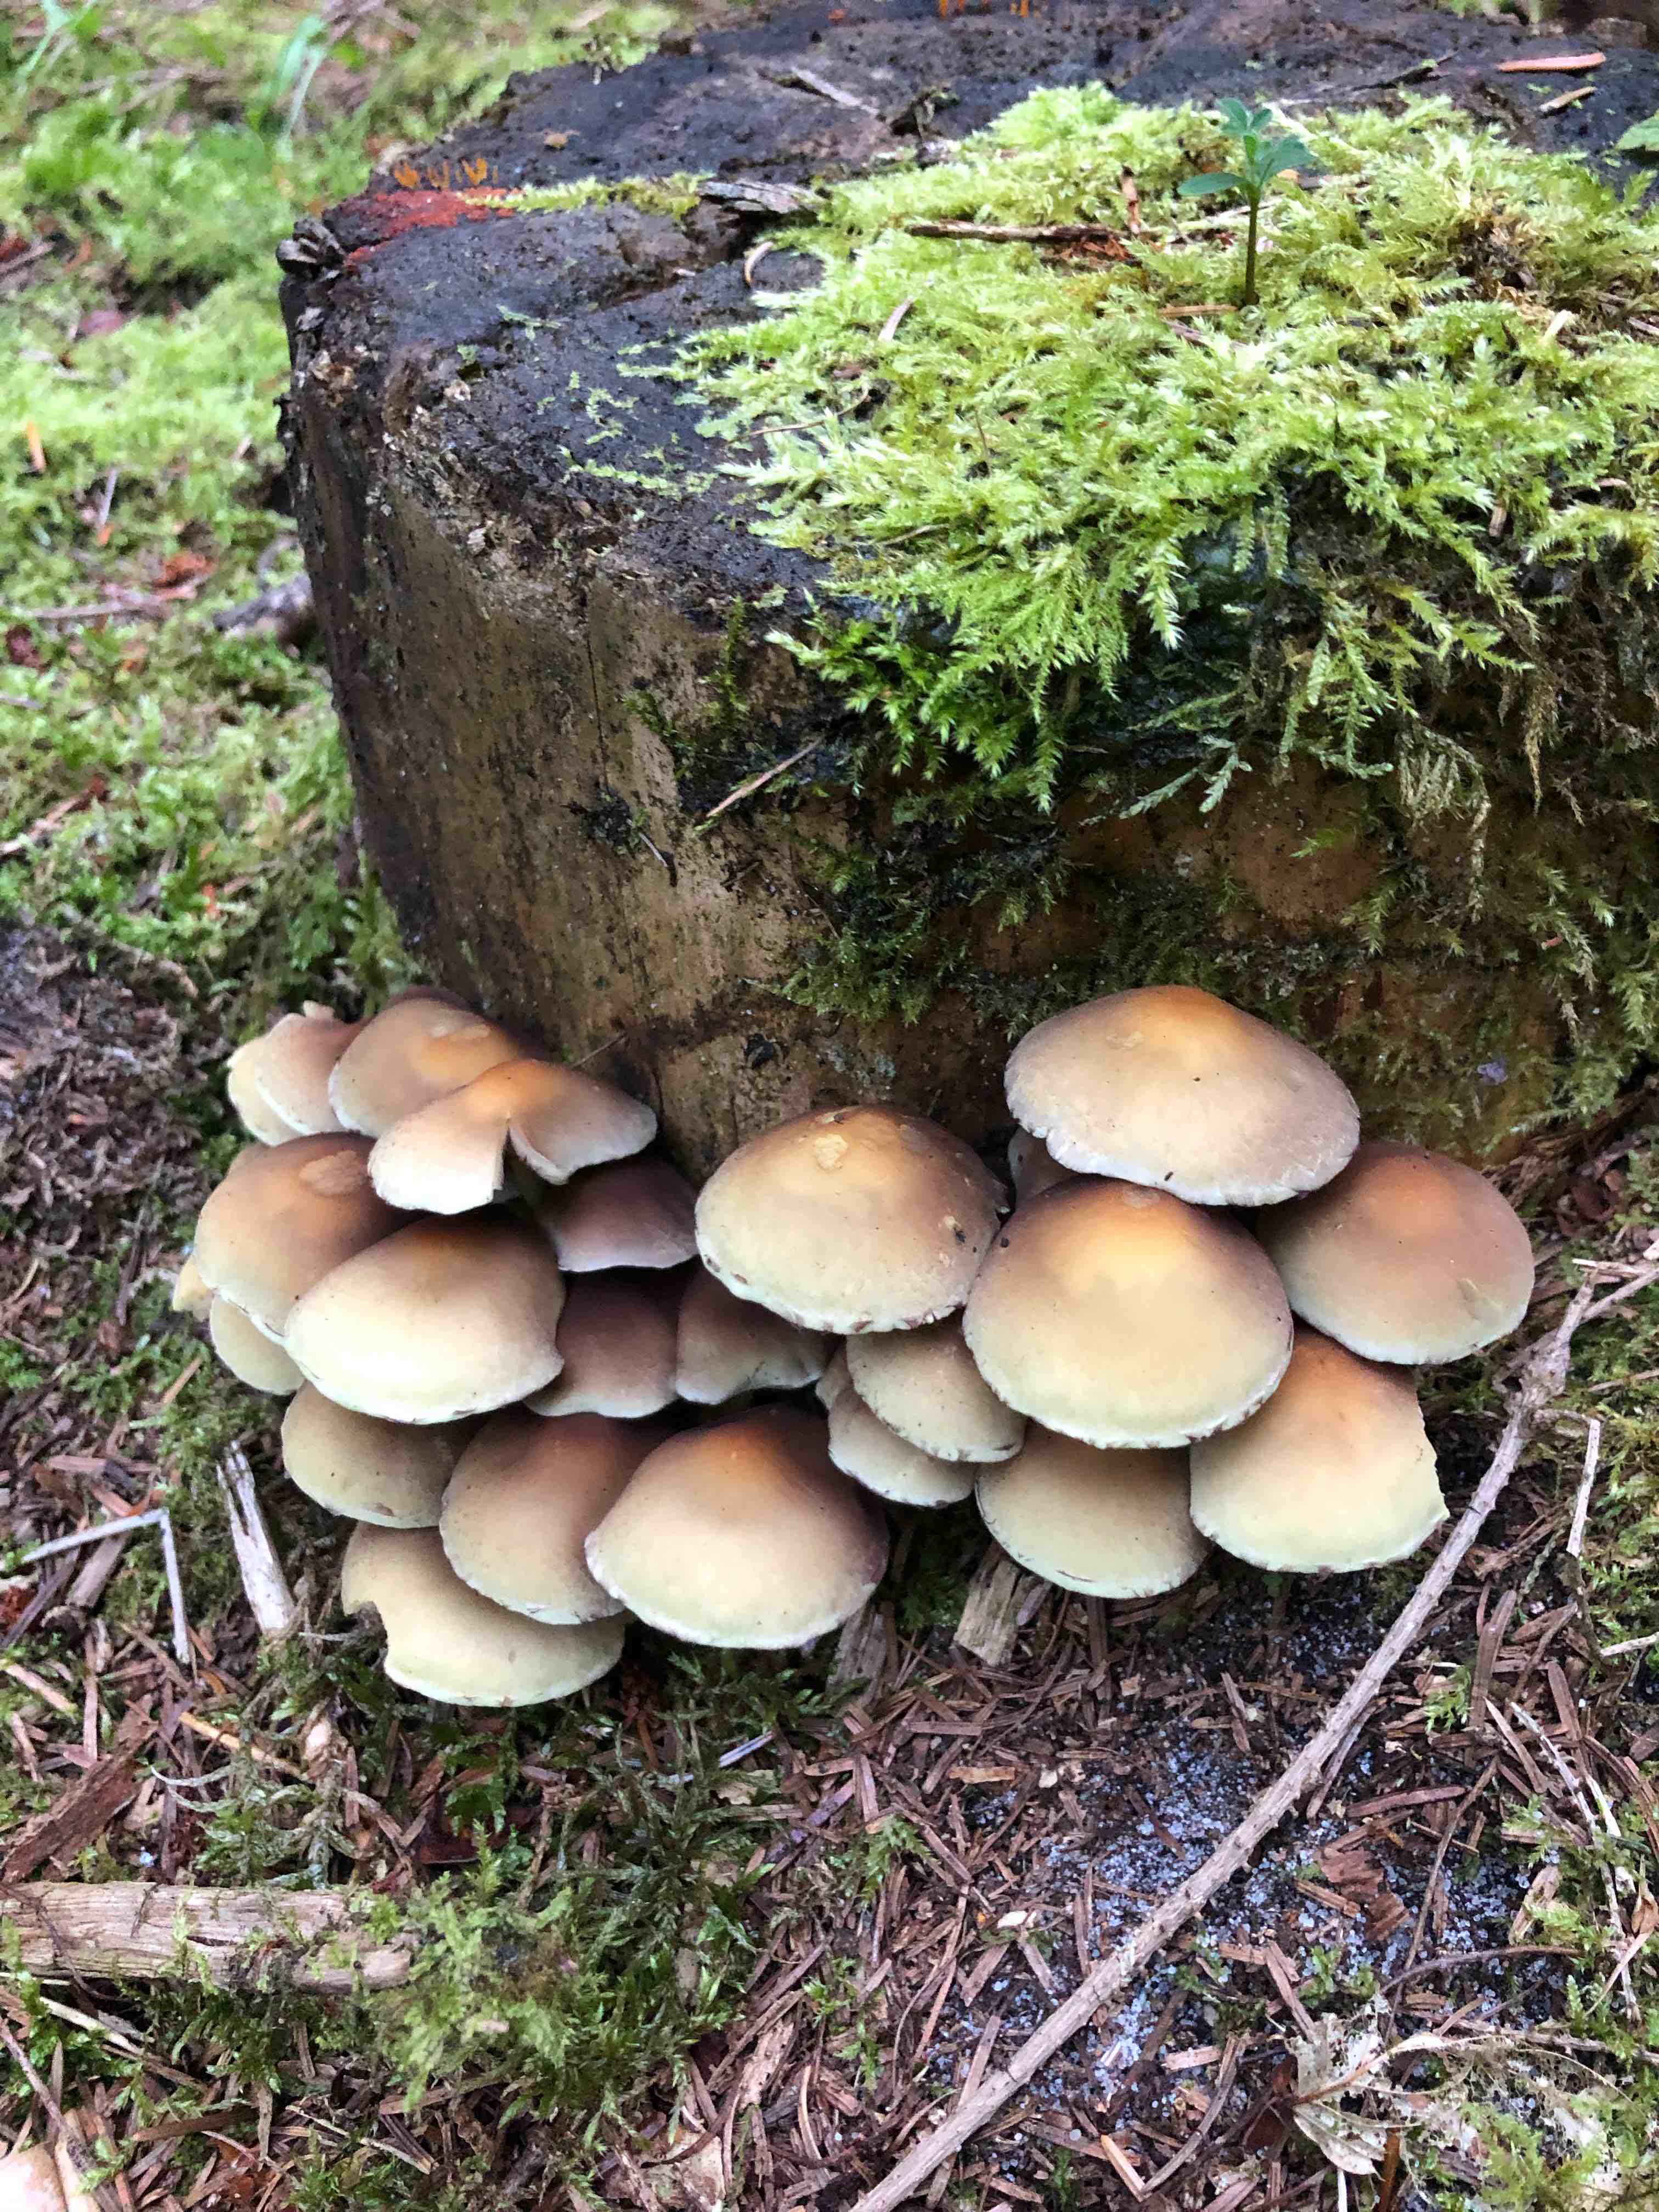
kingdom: Fungi
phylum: Basidiomycota
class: Agaricomycetes
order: Agaricales
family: Strophariaceae
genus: Hypholoma
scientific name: Hypholoma fasciculare
